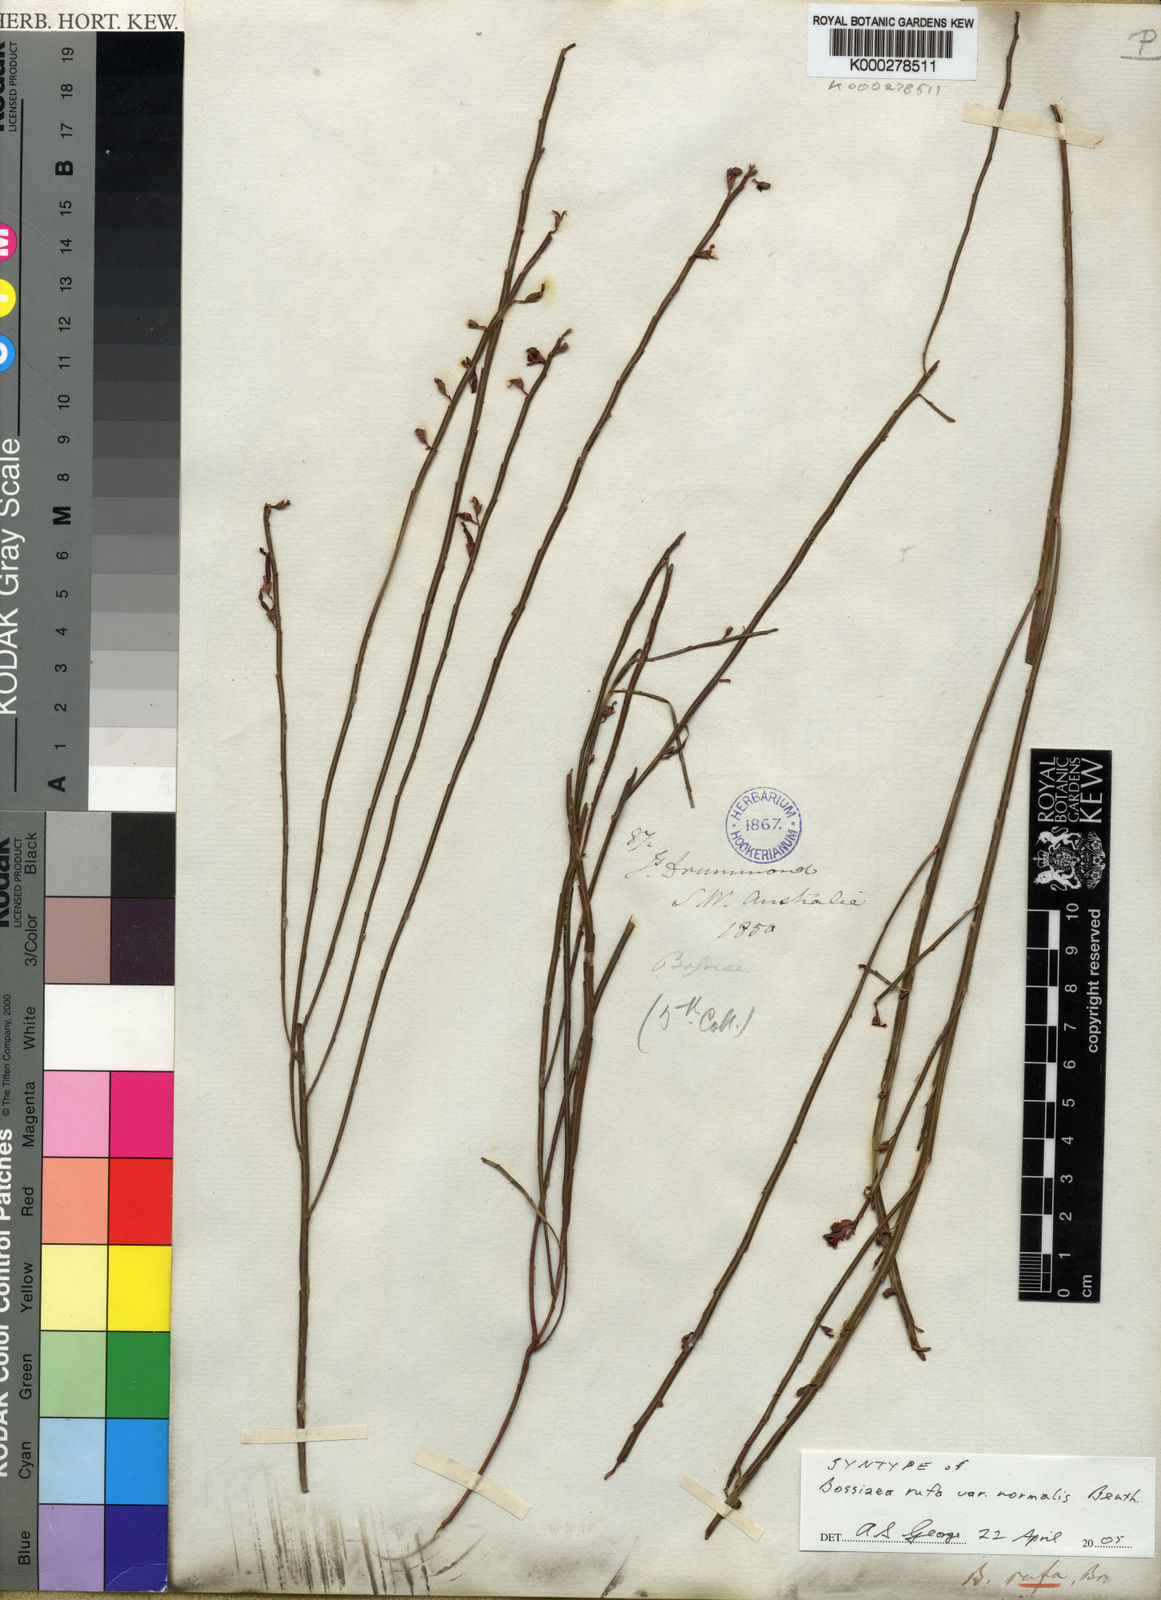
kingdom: Plantae
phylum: Tracheophyta
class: Magnoliopsida
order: Fabales
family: Fabaceae
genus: Bossiaea
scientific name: Bossiaea rufa
